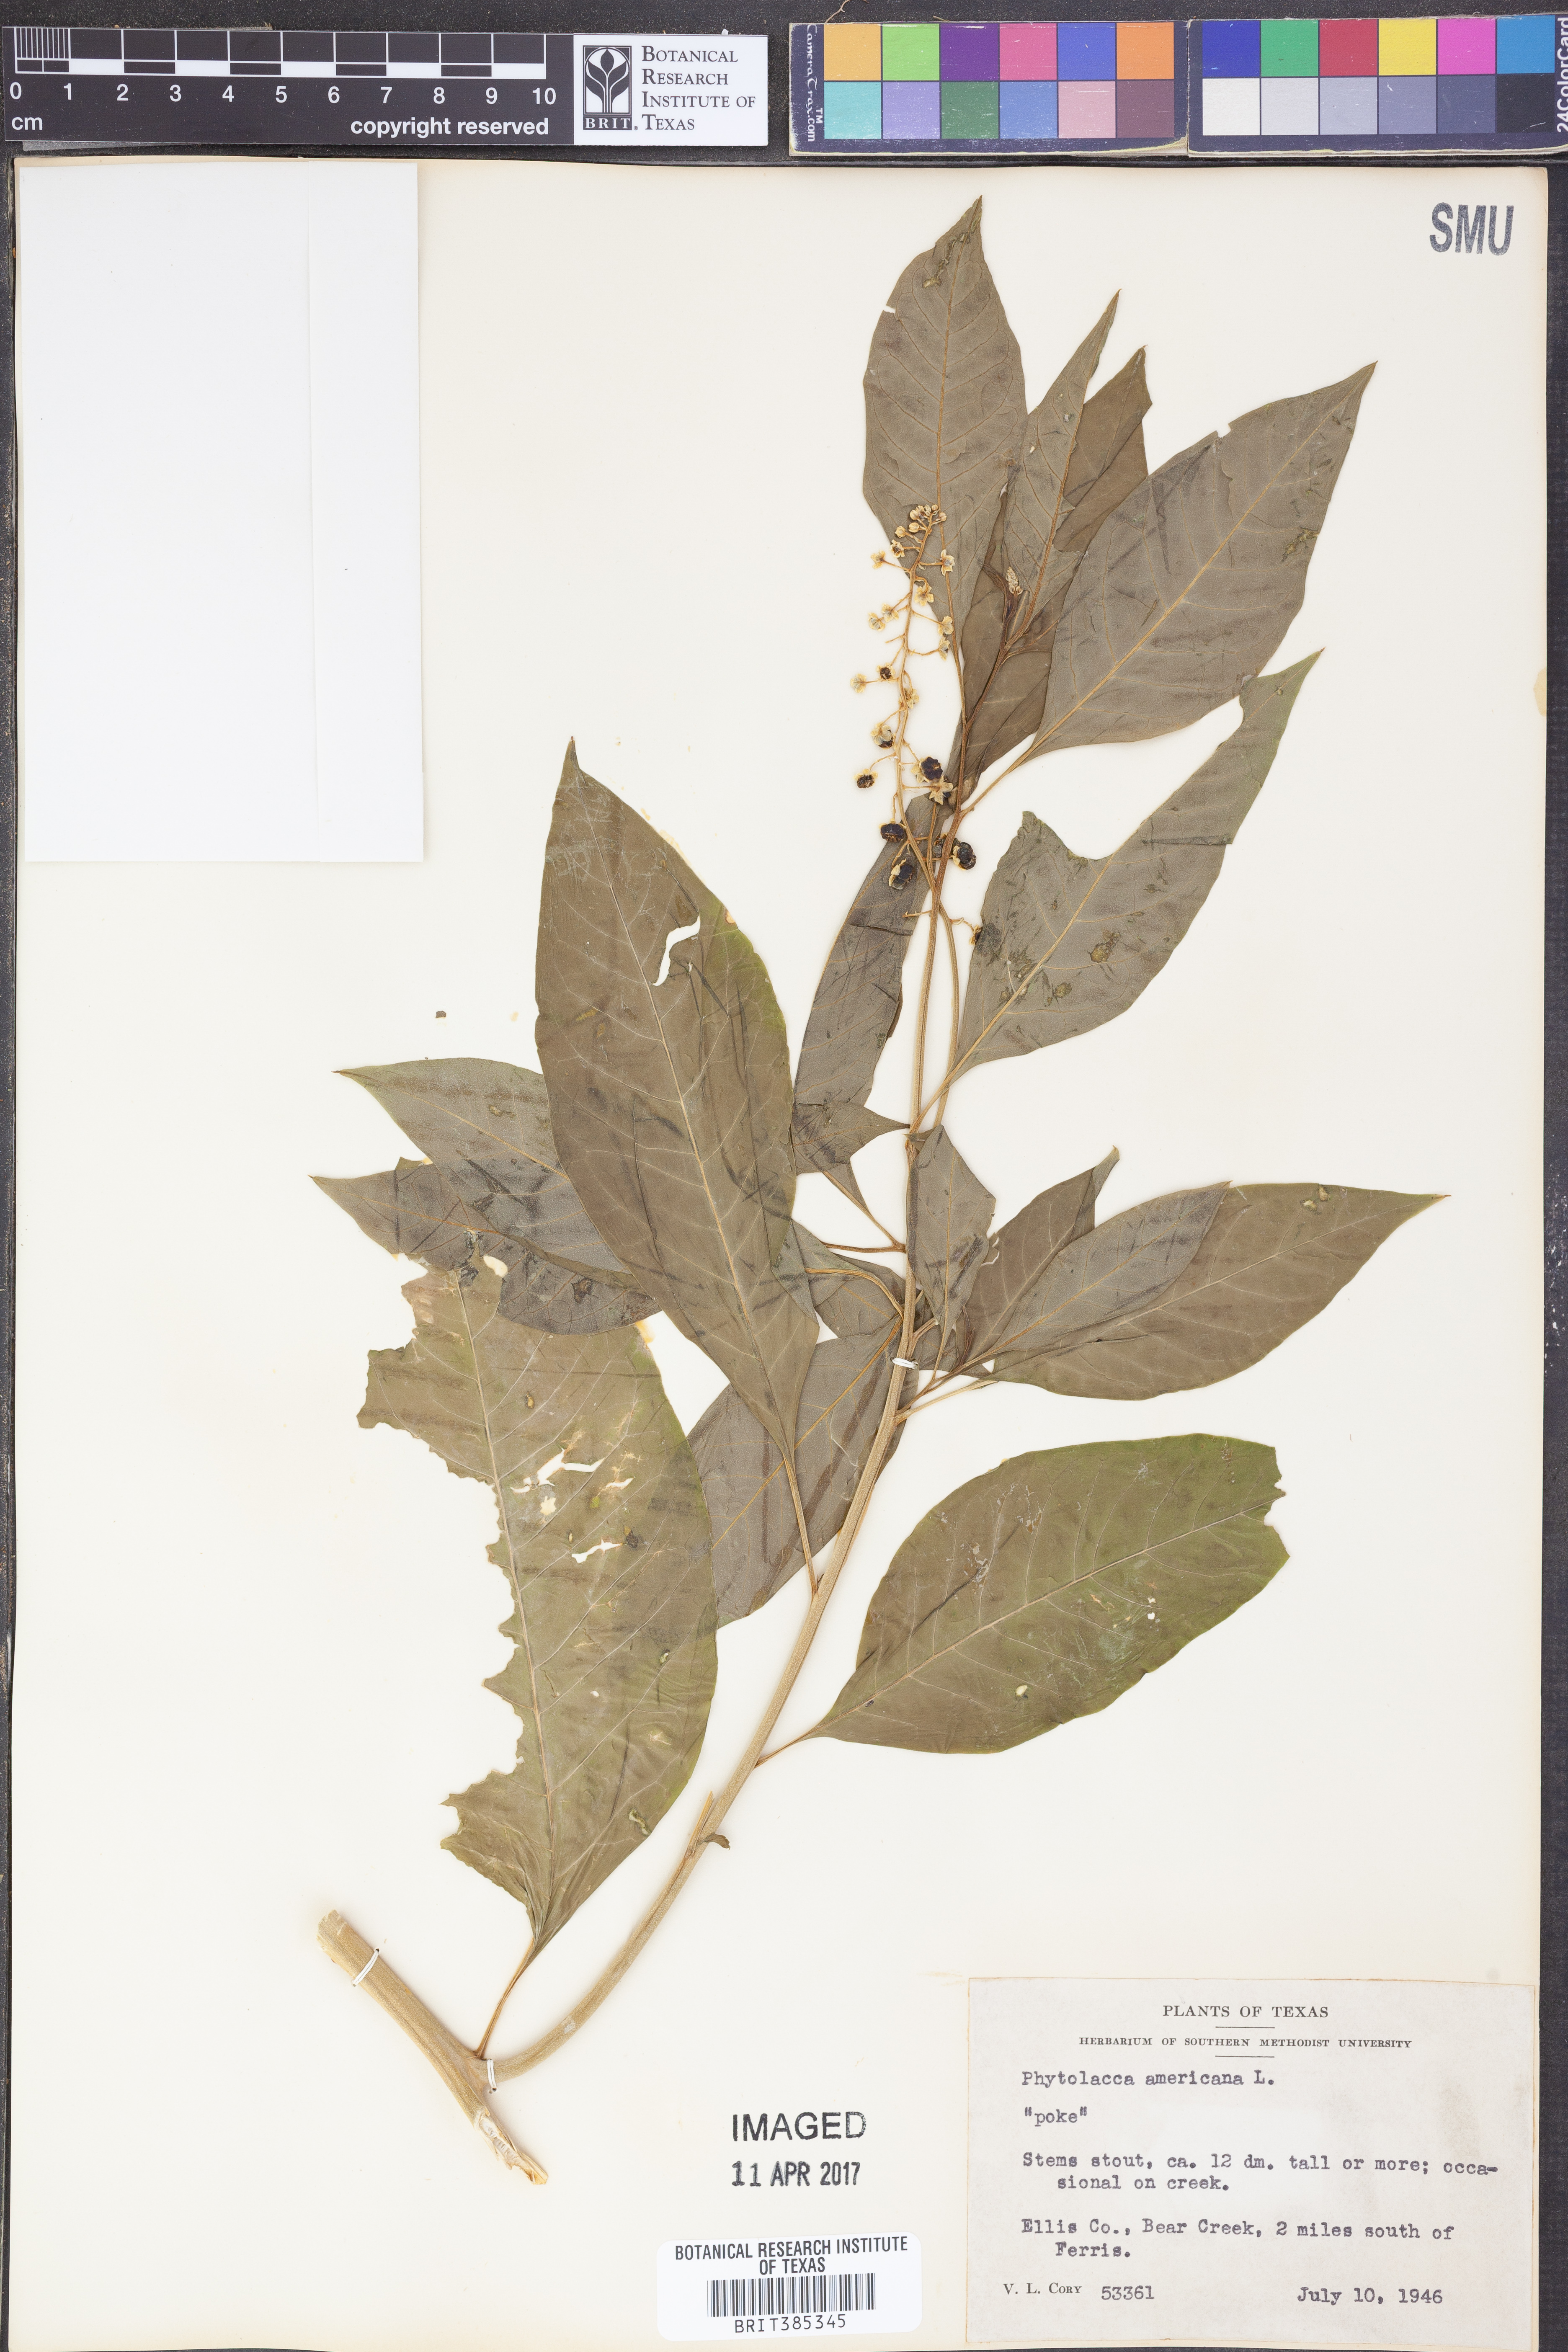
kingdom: Plantae
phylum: Tracheophyta
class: Magnoliopsida
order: Caryophyllales
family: Phytolaccaceae
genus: Phytolacca
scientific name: Phytolacca americana
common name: American pokeweed
